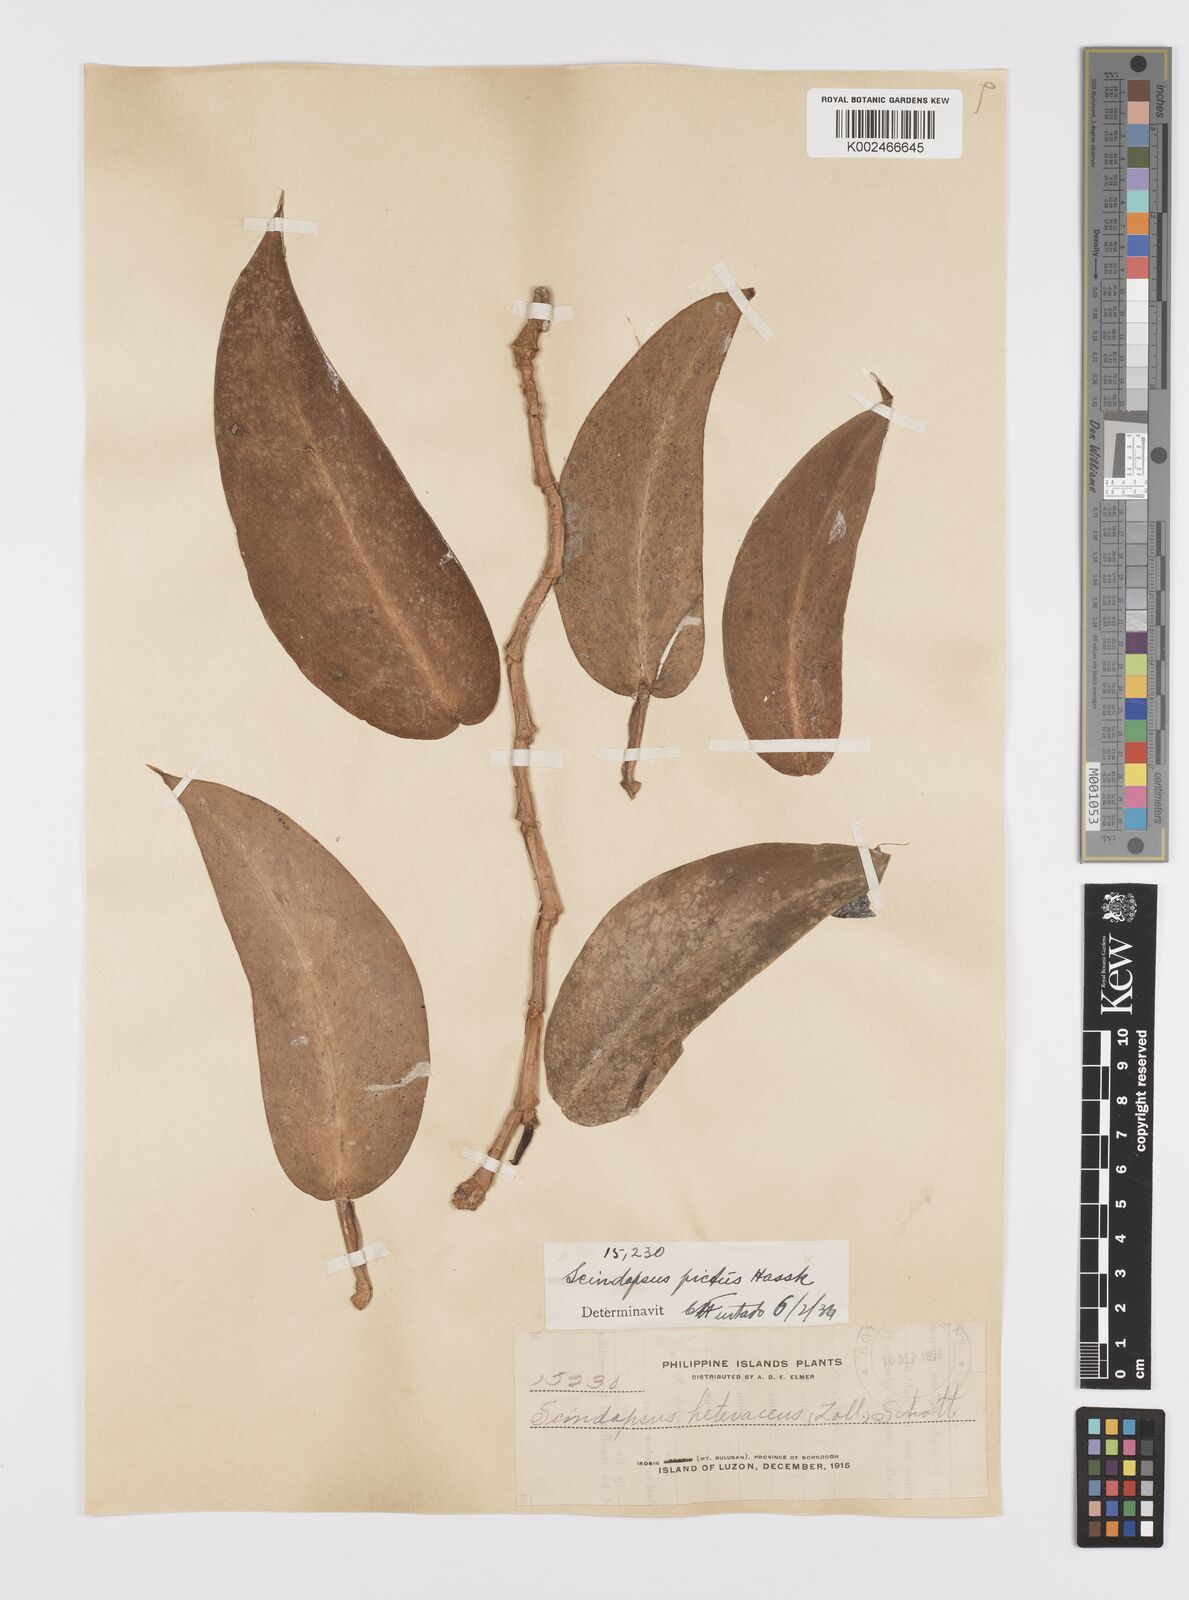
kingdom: Plantae
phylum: Tracheophyta
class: Liliopsida
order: Alismatales
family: Araceae
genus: Scindapsus
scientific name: Scindapsus pictus
